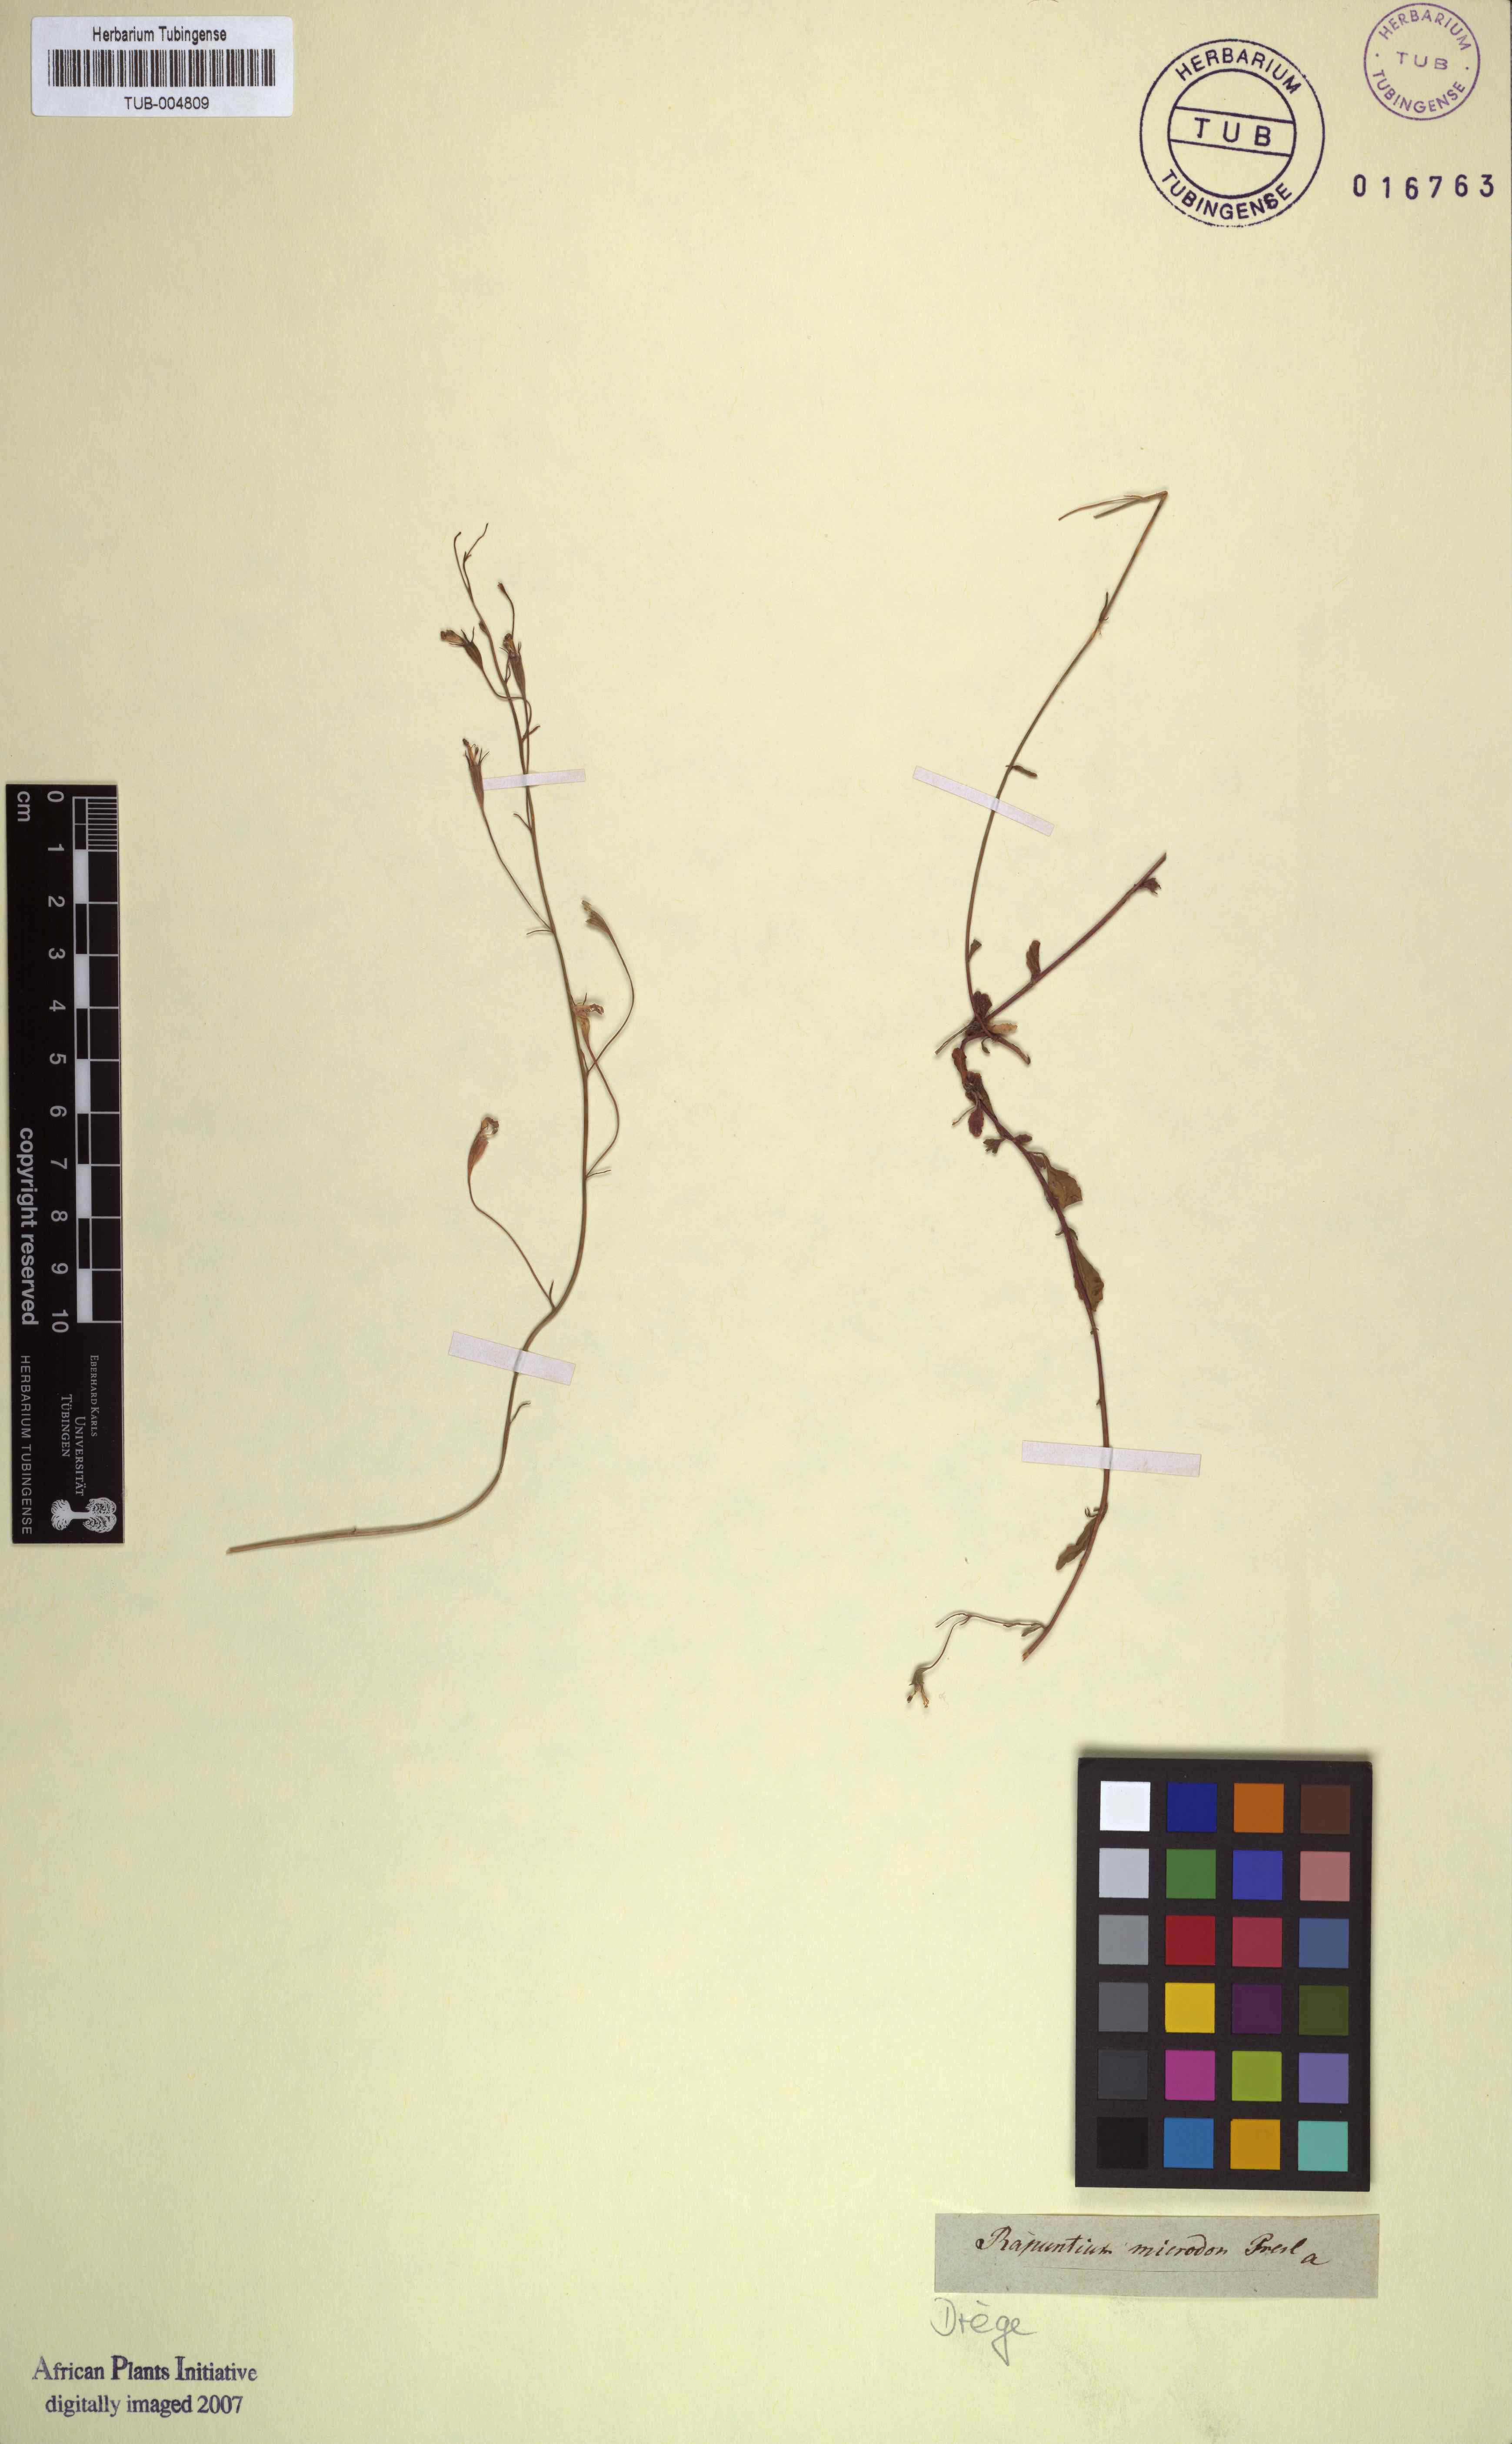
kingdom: Plantae
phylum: Tracheophyta
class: Magnoliopsida
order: Asterales
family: Campanulaceae
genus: Lobelia
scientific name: Lobelia erinus
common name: Edging lobelia
